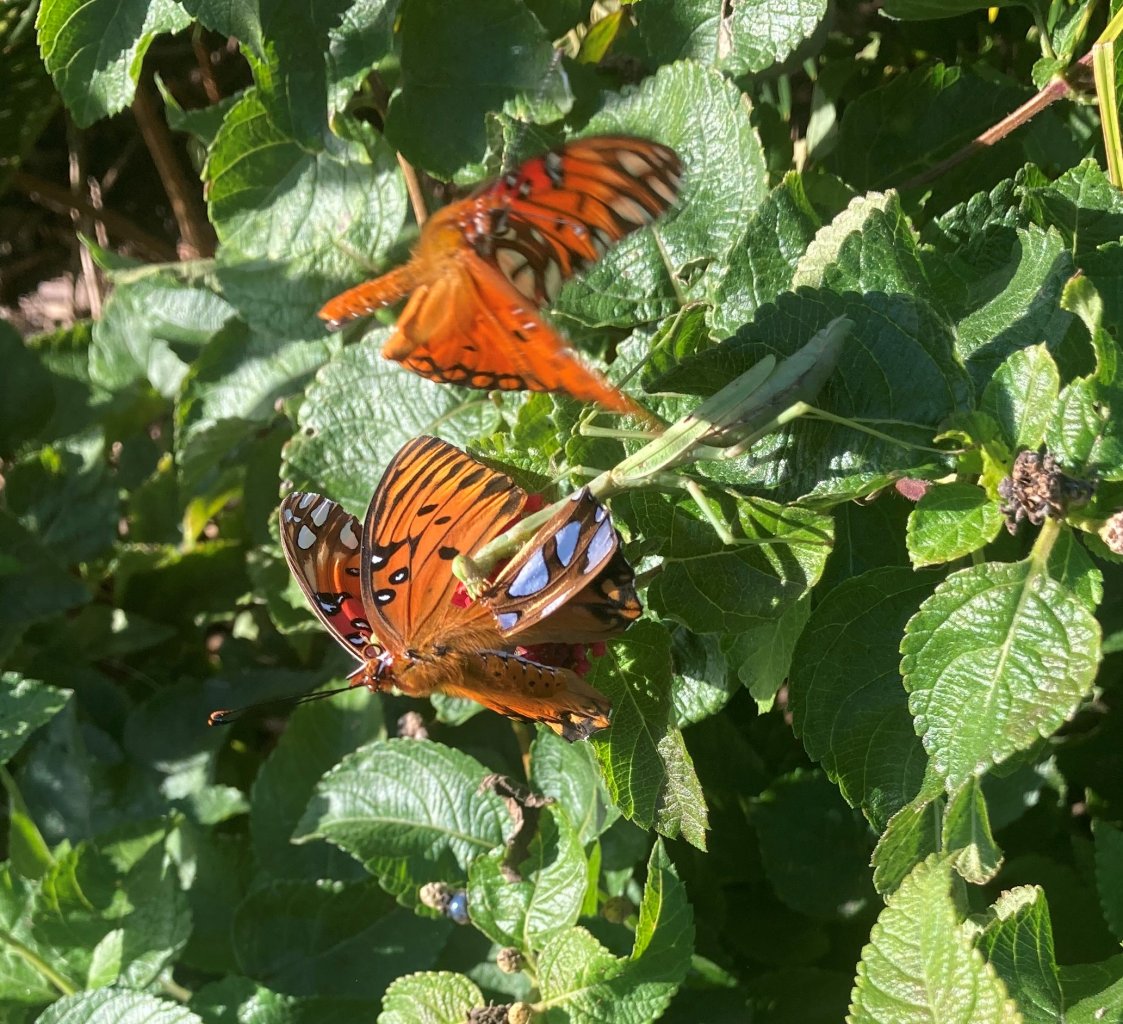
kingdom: Animalia
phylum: Arthropoda
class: Insecta
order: Lepidoptera
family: Nymphalidae
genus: Dione
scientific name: Dione vanillae
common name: Gulf Fritillary
